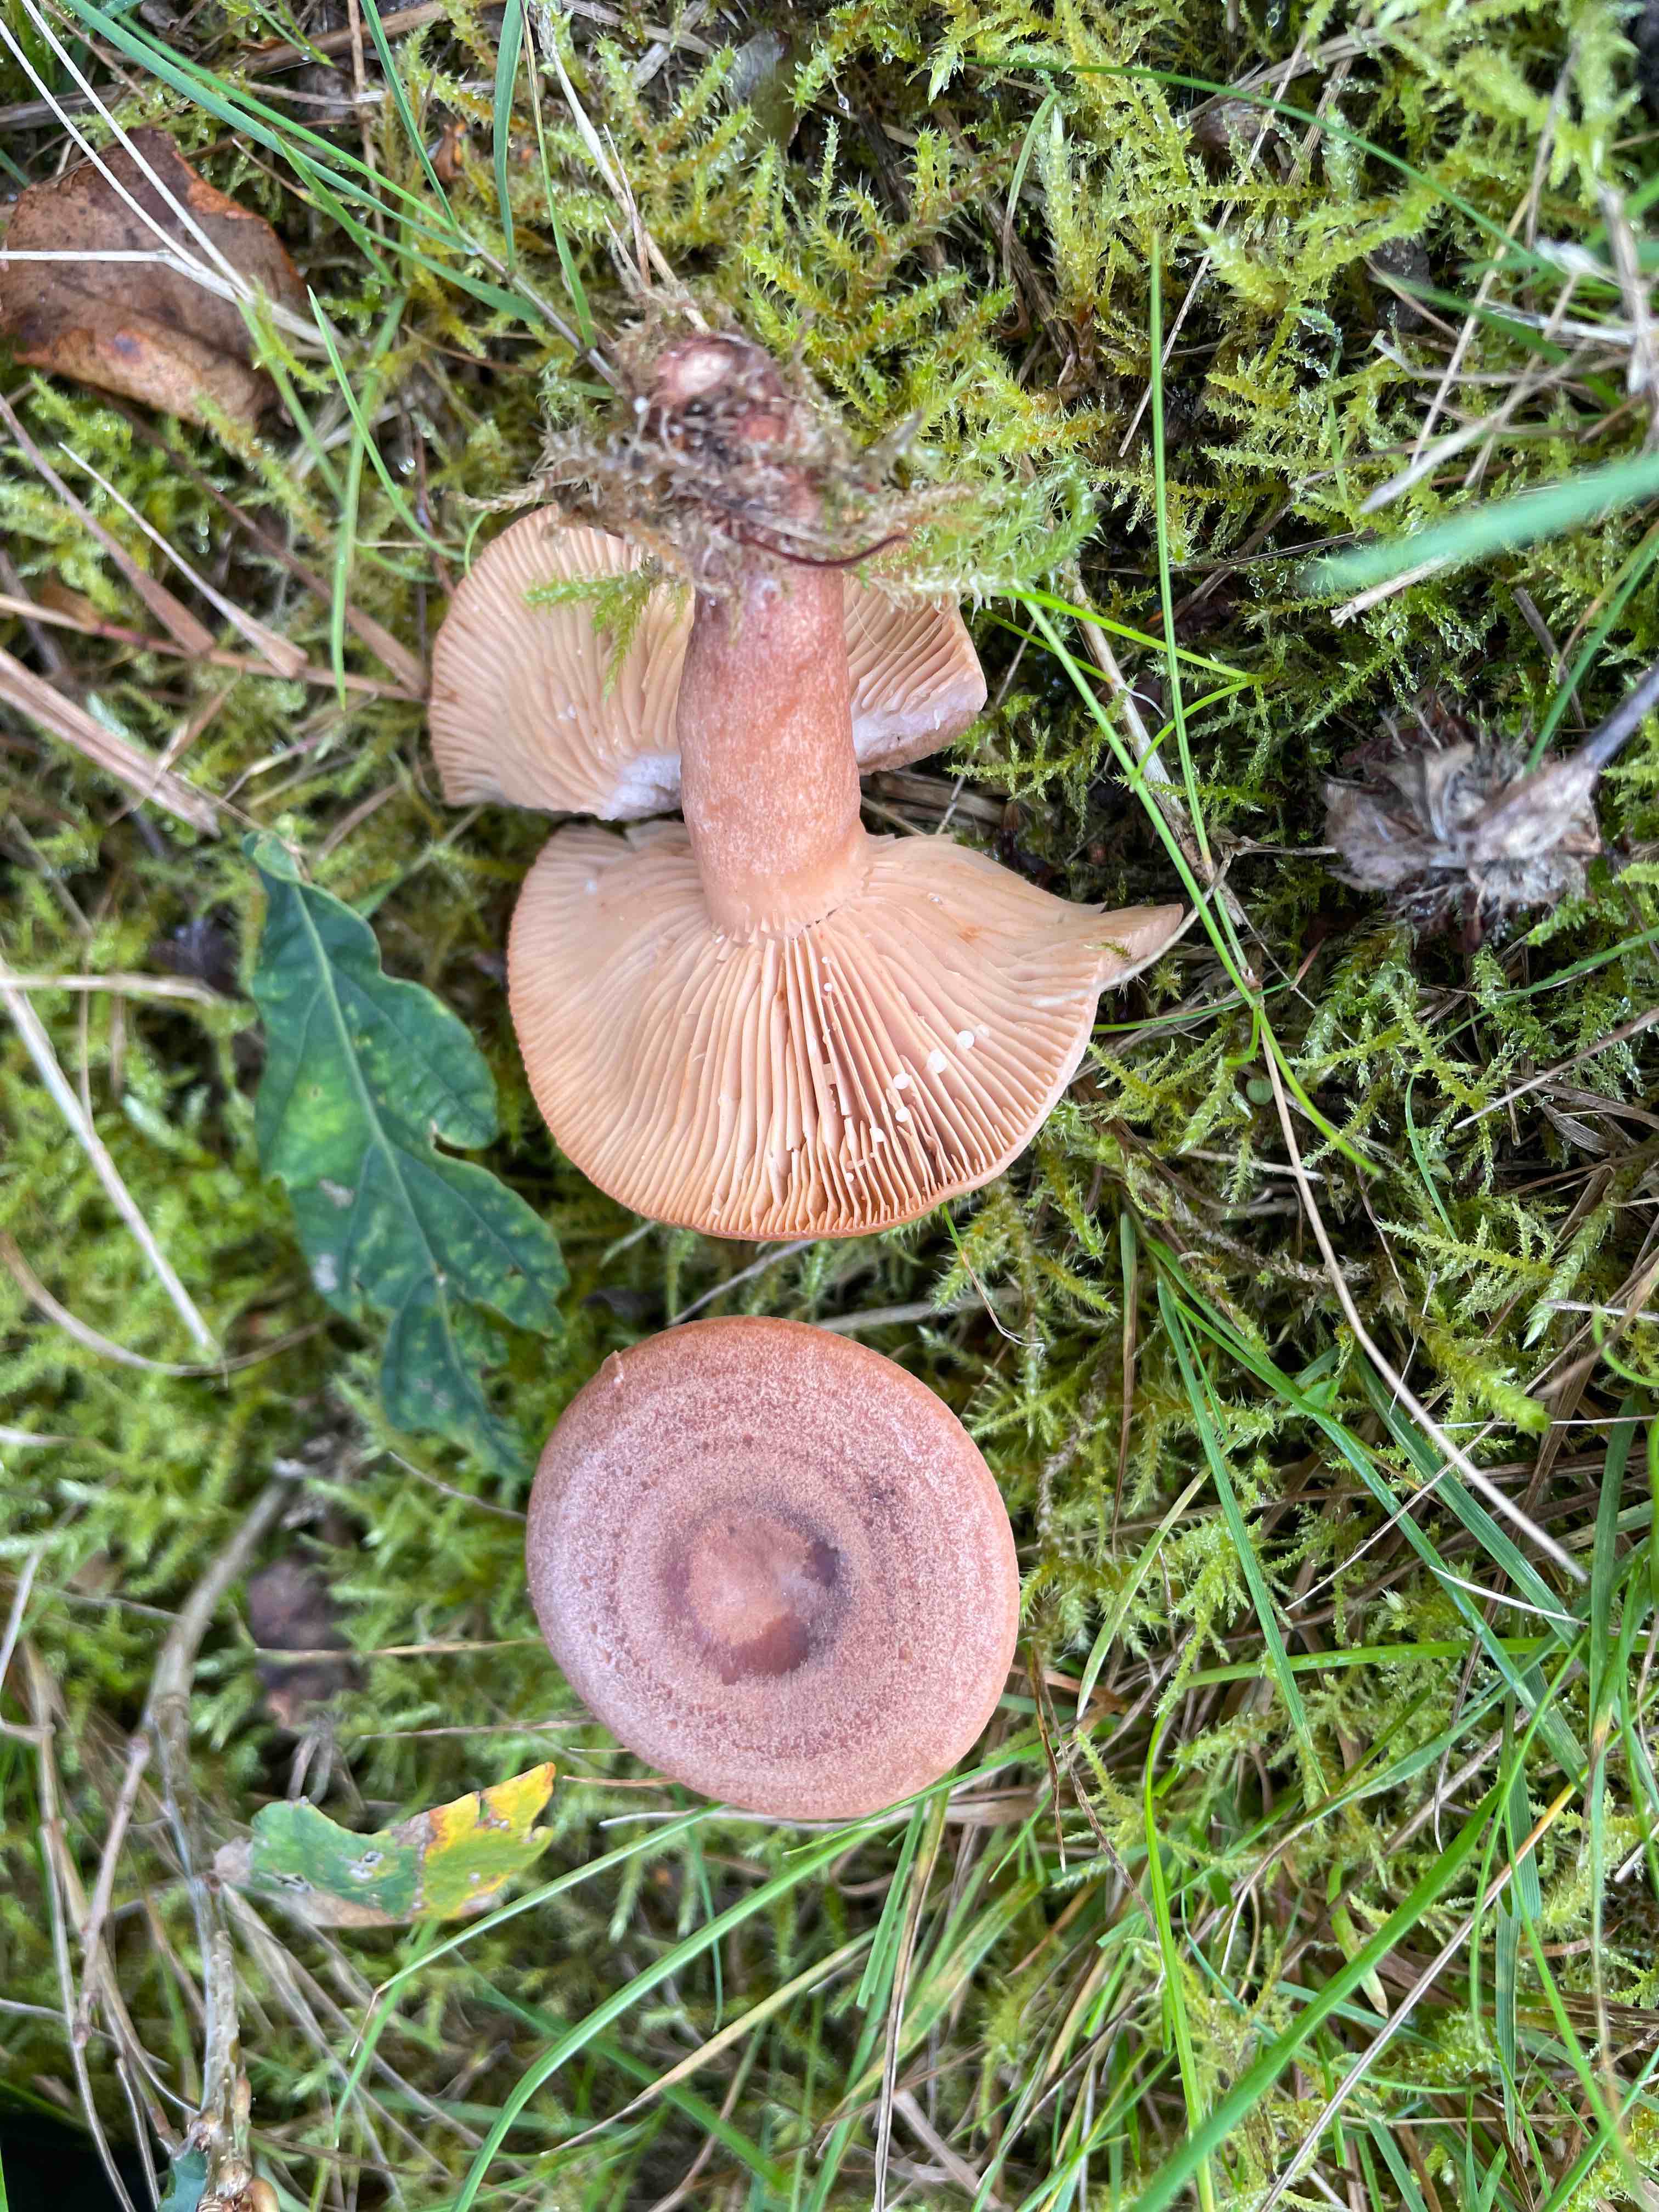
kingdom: Fungi
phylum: Basidiomycota
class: Agaricomycetes
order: Russulales
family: Russulaceae
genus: Lactarius
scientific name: Lactarius quietus
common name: ege-mælkehat
